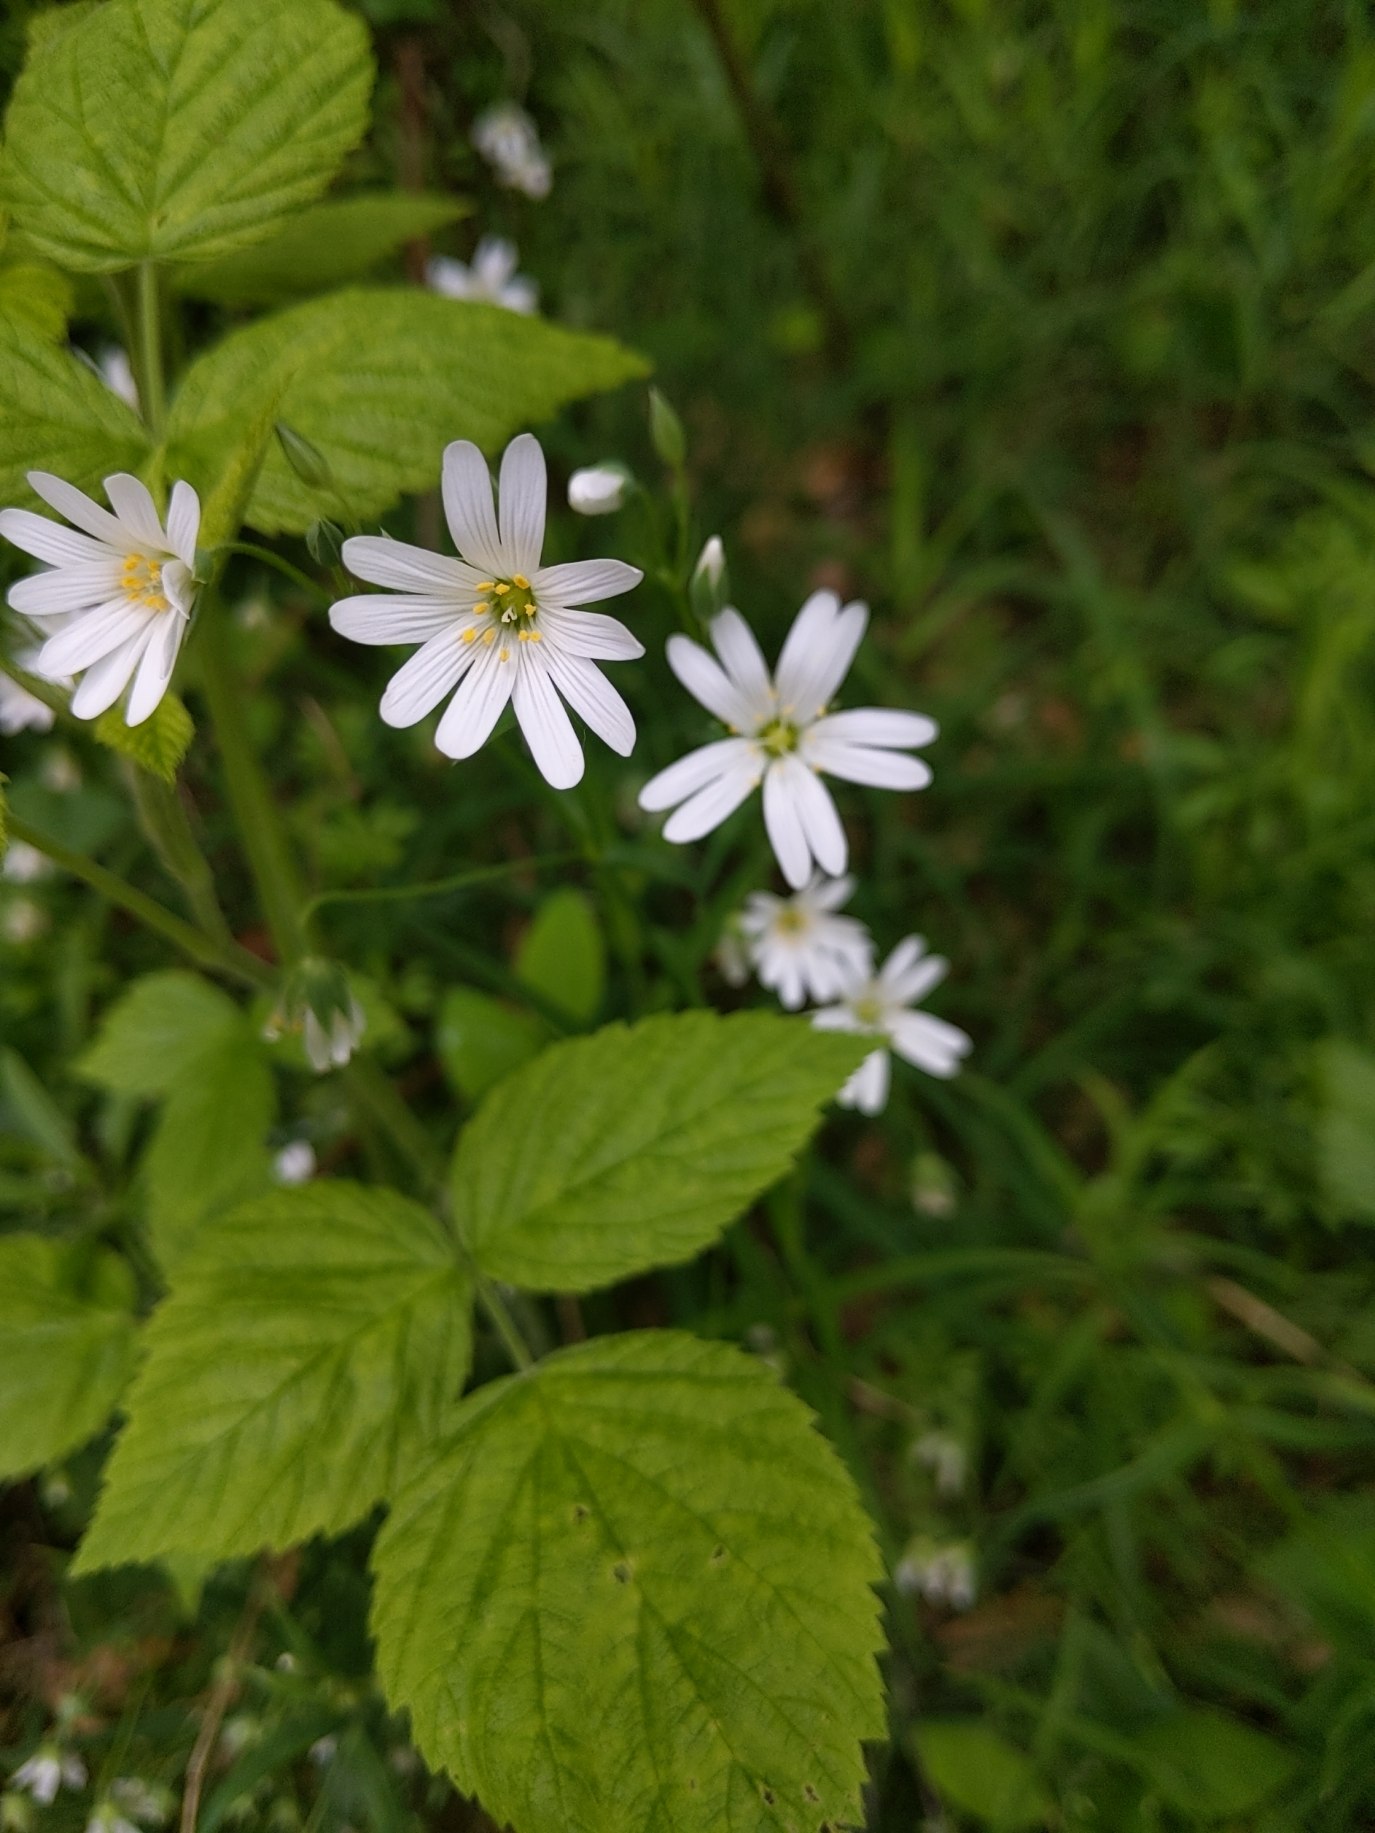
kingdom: Plantae
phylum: Tracheophyta
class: Magnoliopsida
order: Caryophyllales
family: Caryophyllaceae
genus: Rabelera
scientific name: Rabelera holostea
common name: Stor fladstjerne
